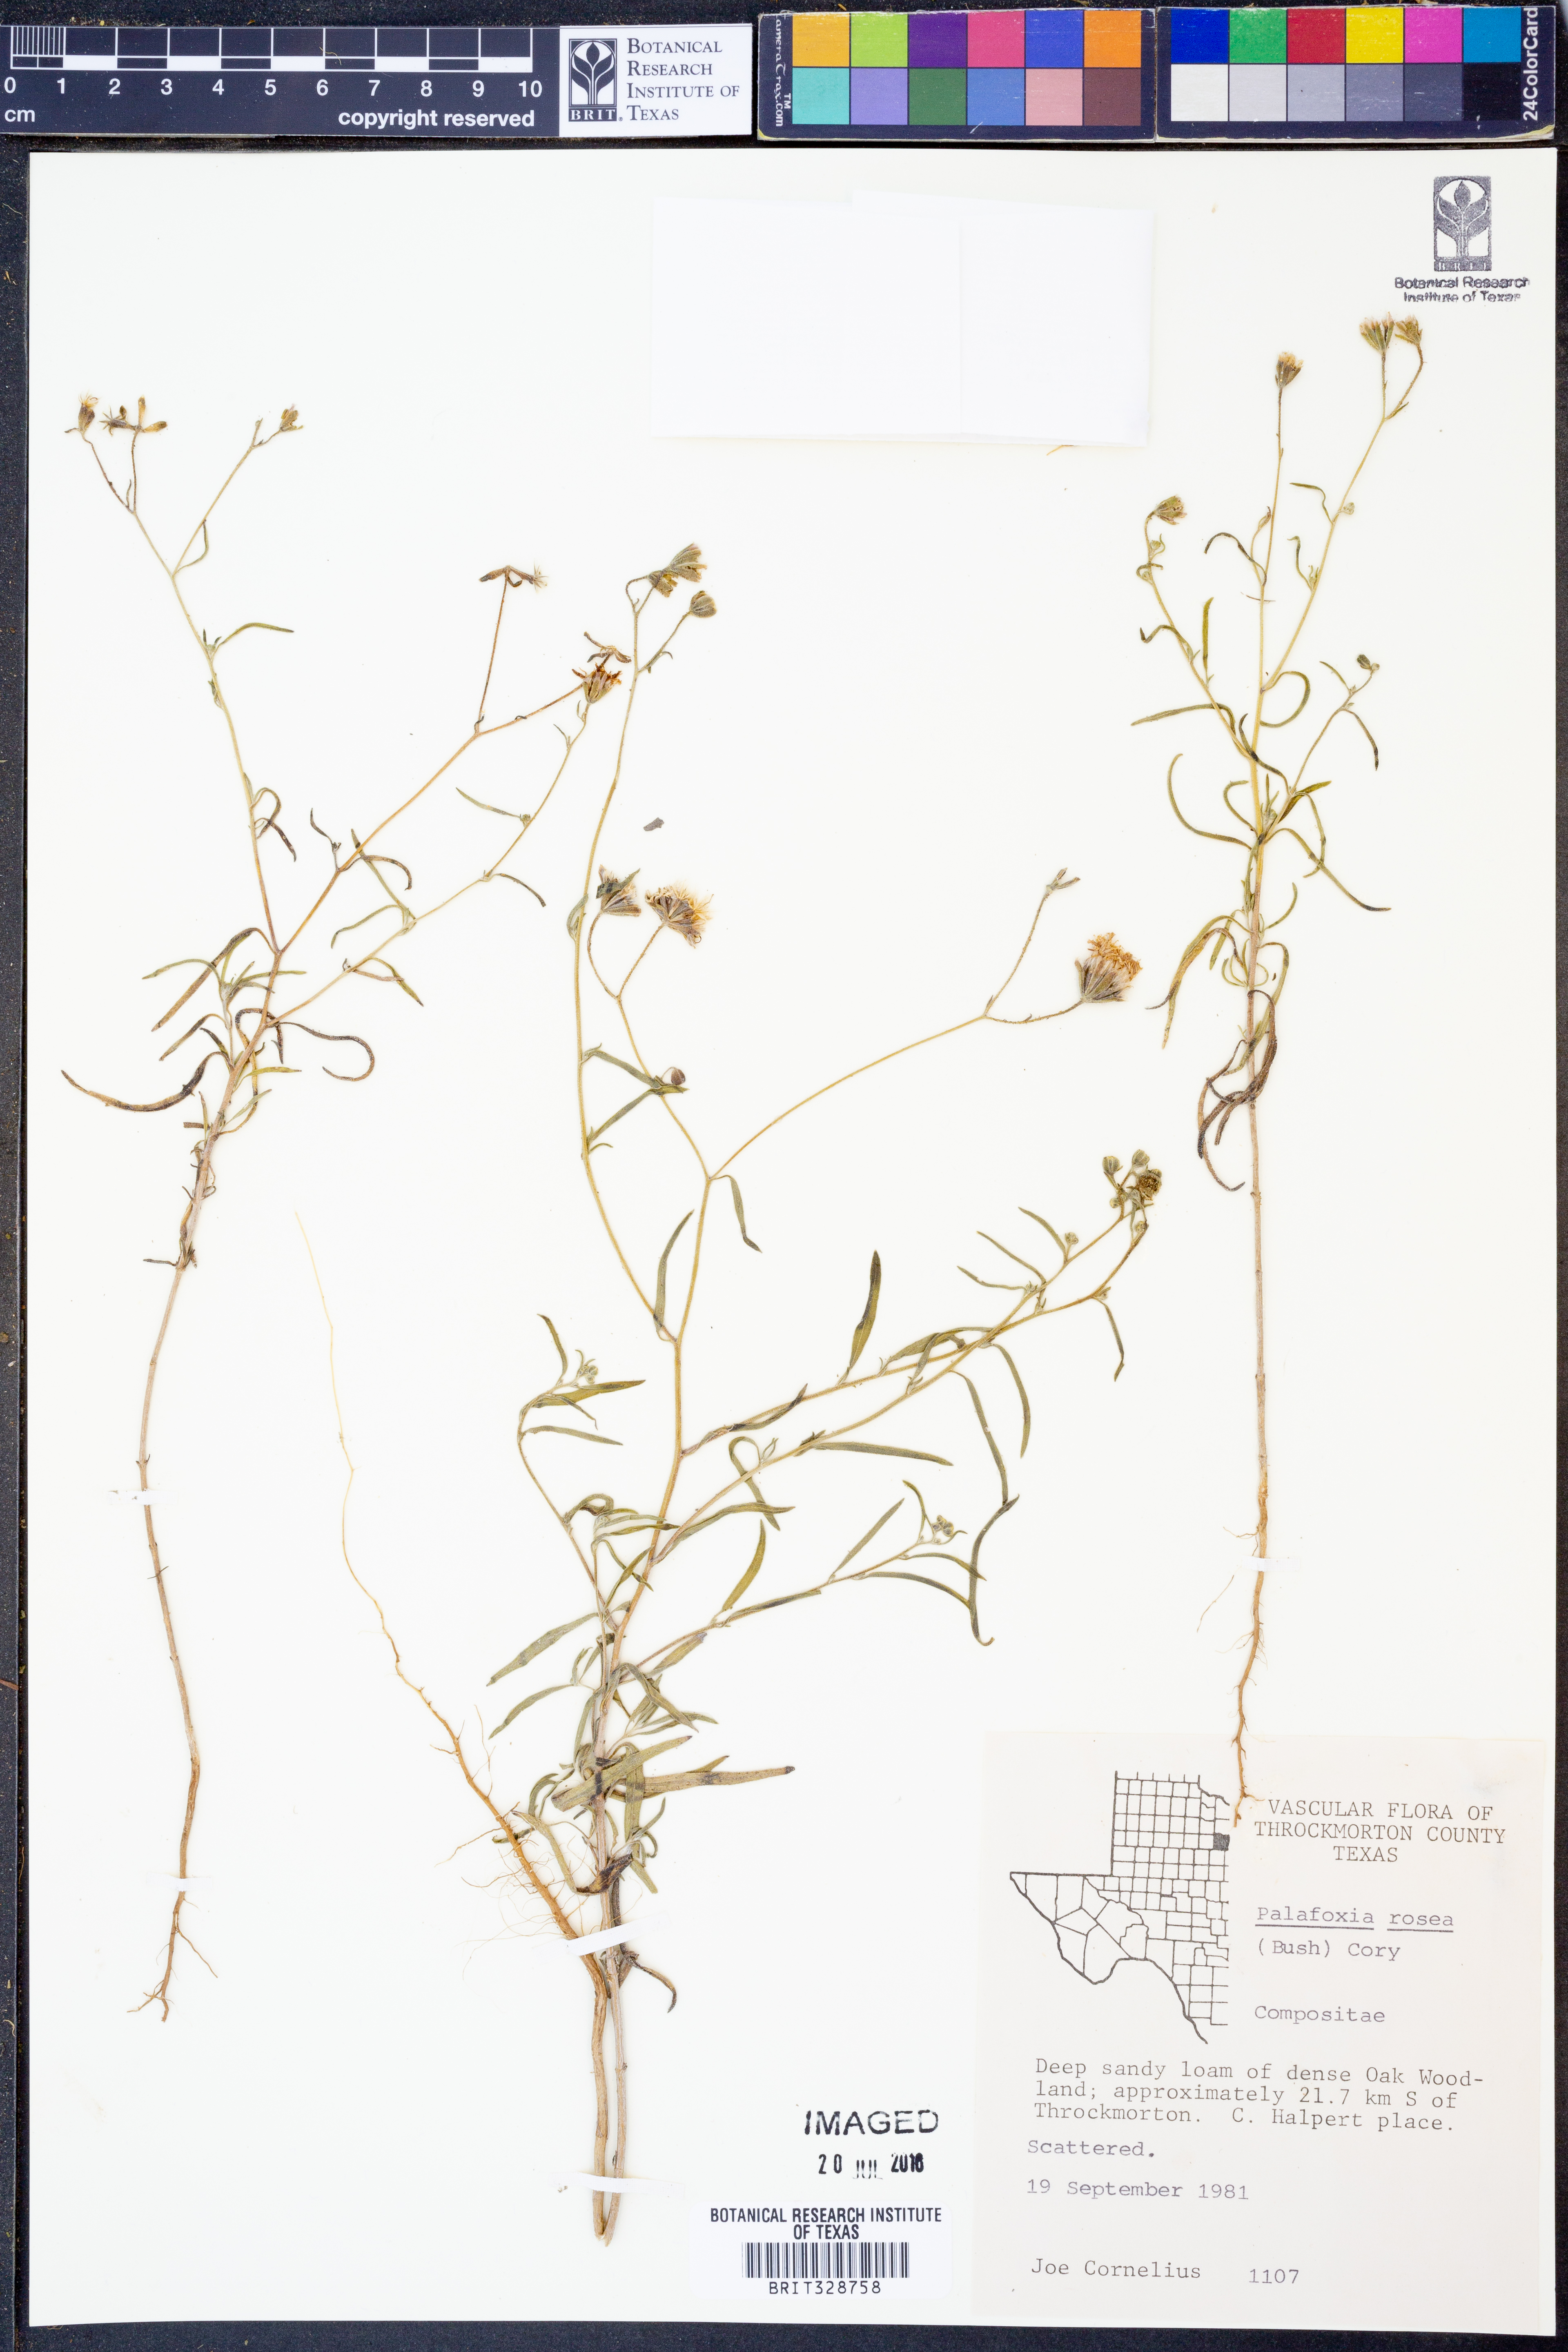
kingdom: Plantae
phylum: Tracheophyta
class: Magnoliopsida
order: Asterales
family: Asteraceae
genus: Palafoxia
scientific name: Palafoxia rosea
